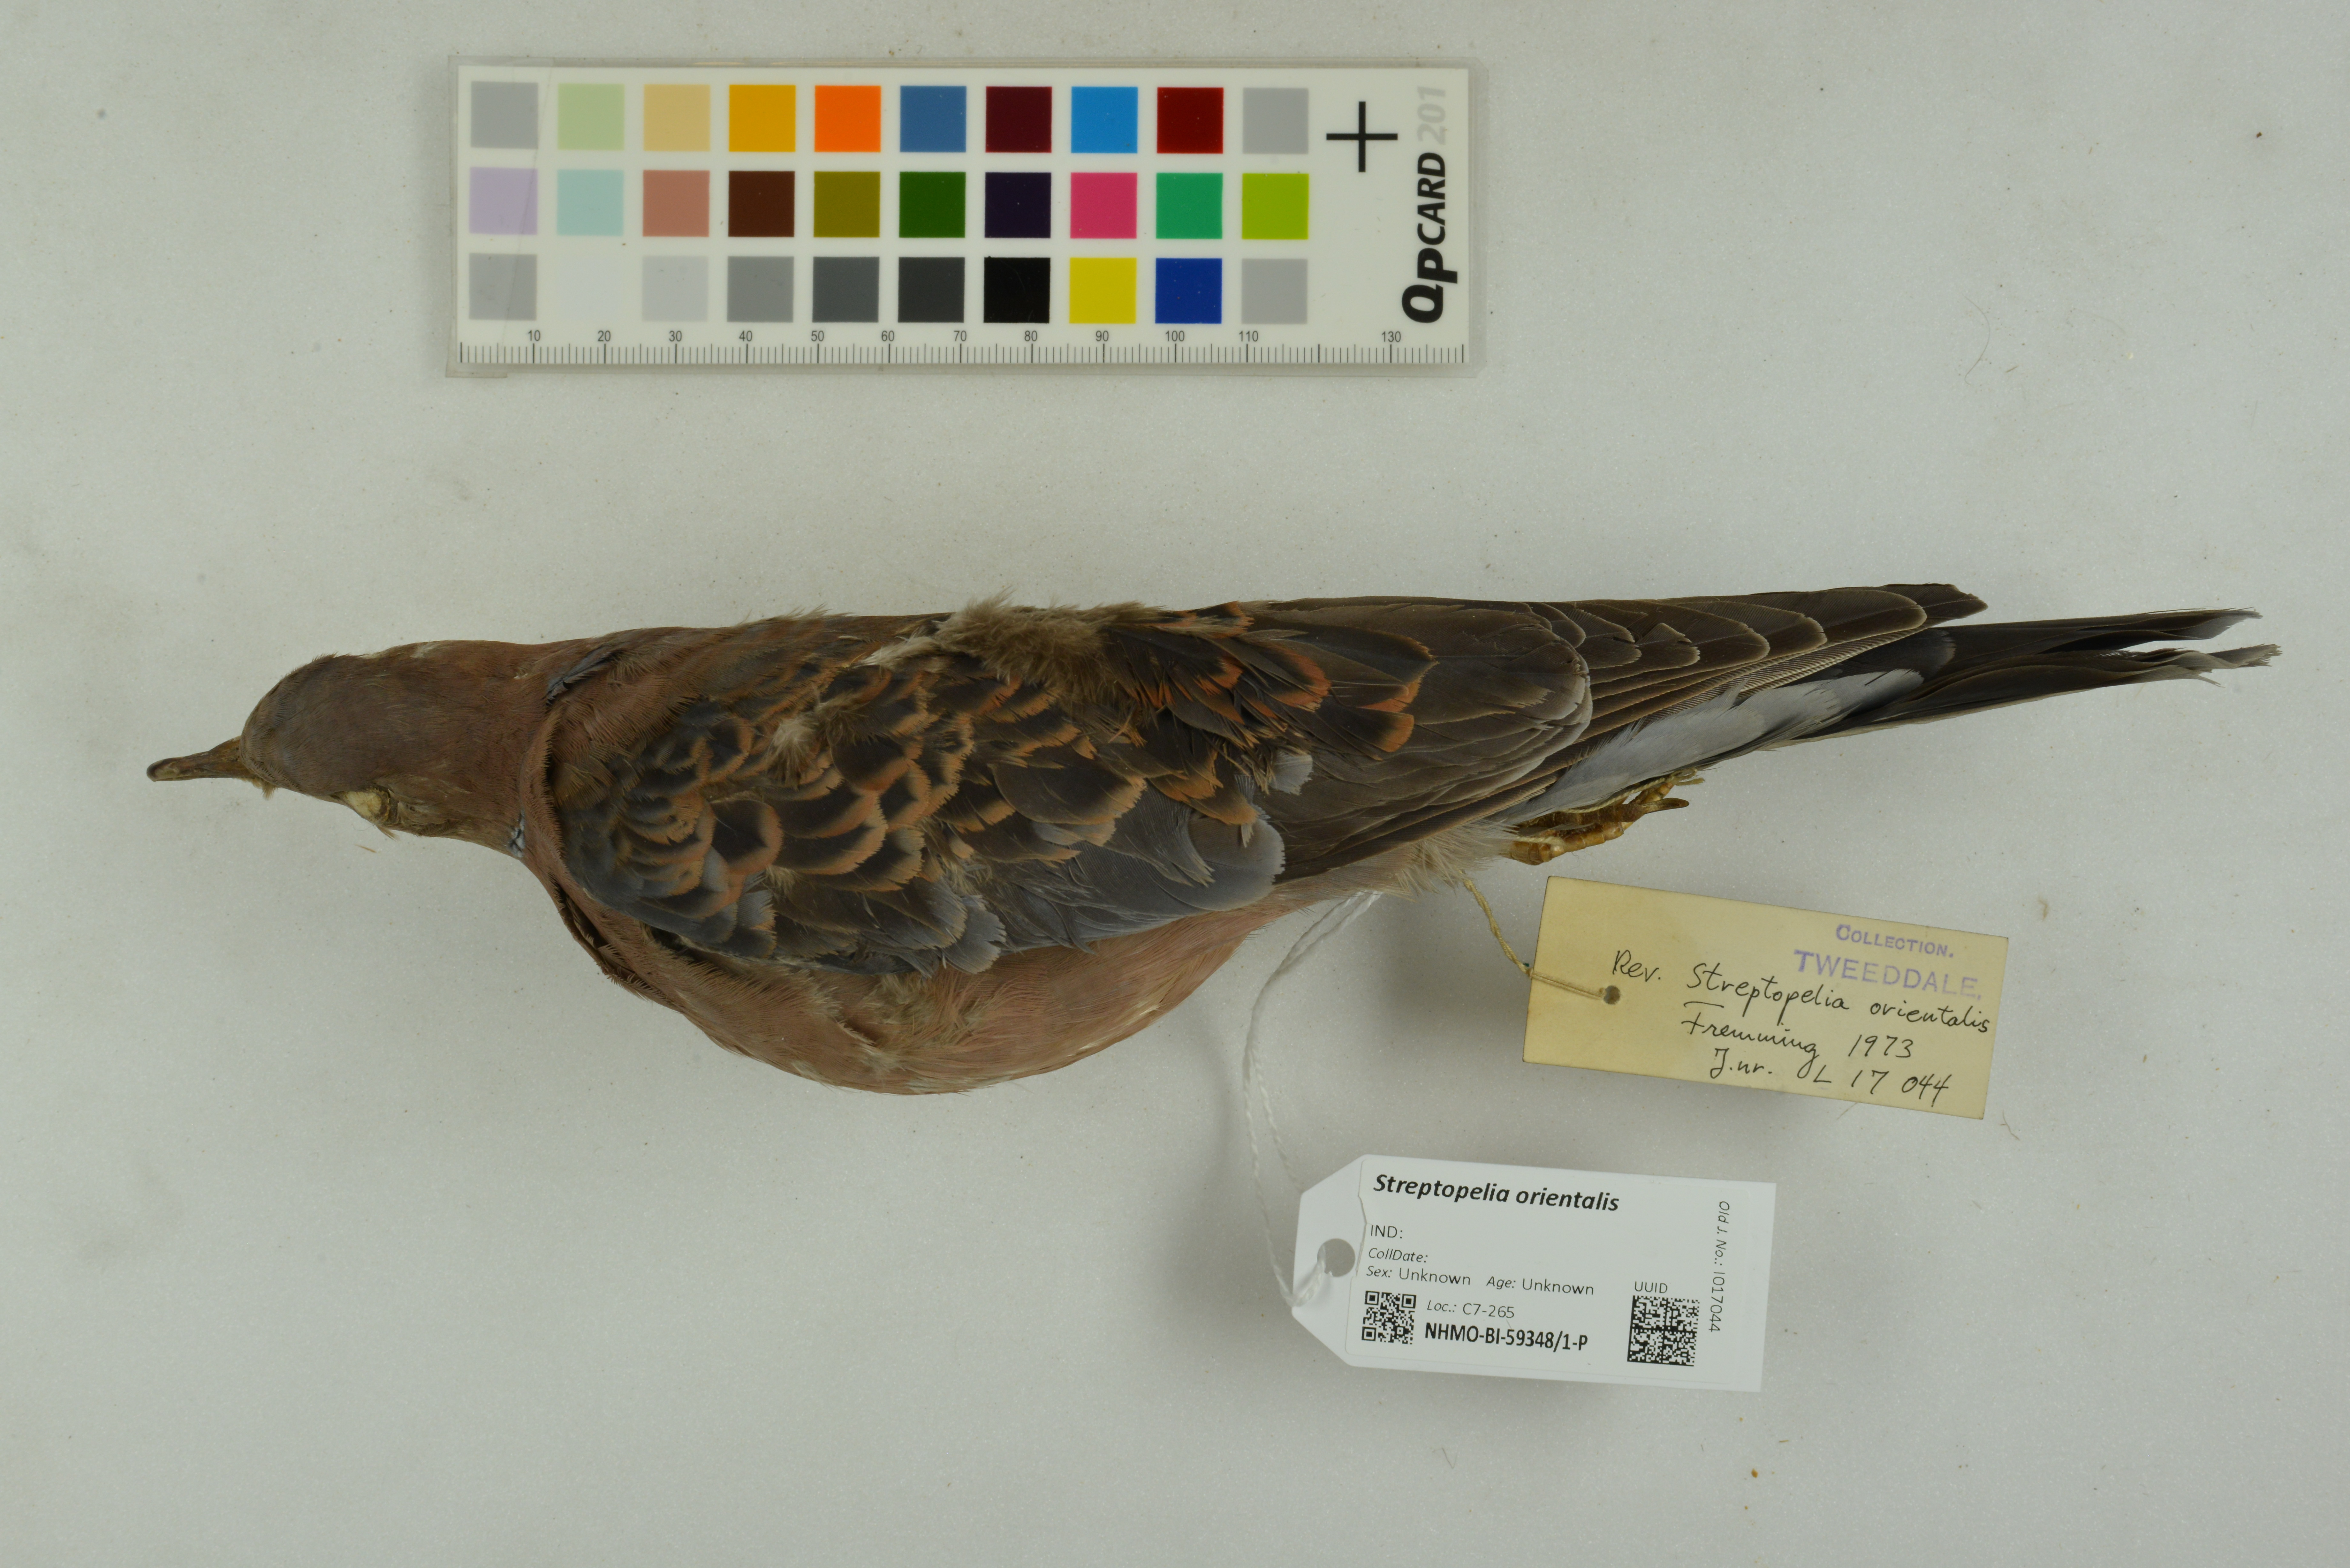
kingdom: Animalia
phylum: Chordata
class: Aves
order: Columbiformes
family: Columbidae
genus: Streptopelia
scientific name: Streptopelia orientalis
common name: Oriental turtle dove
